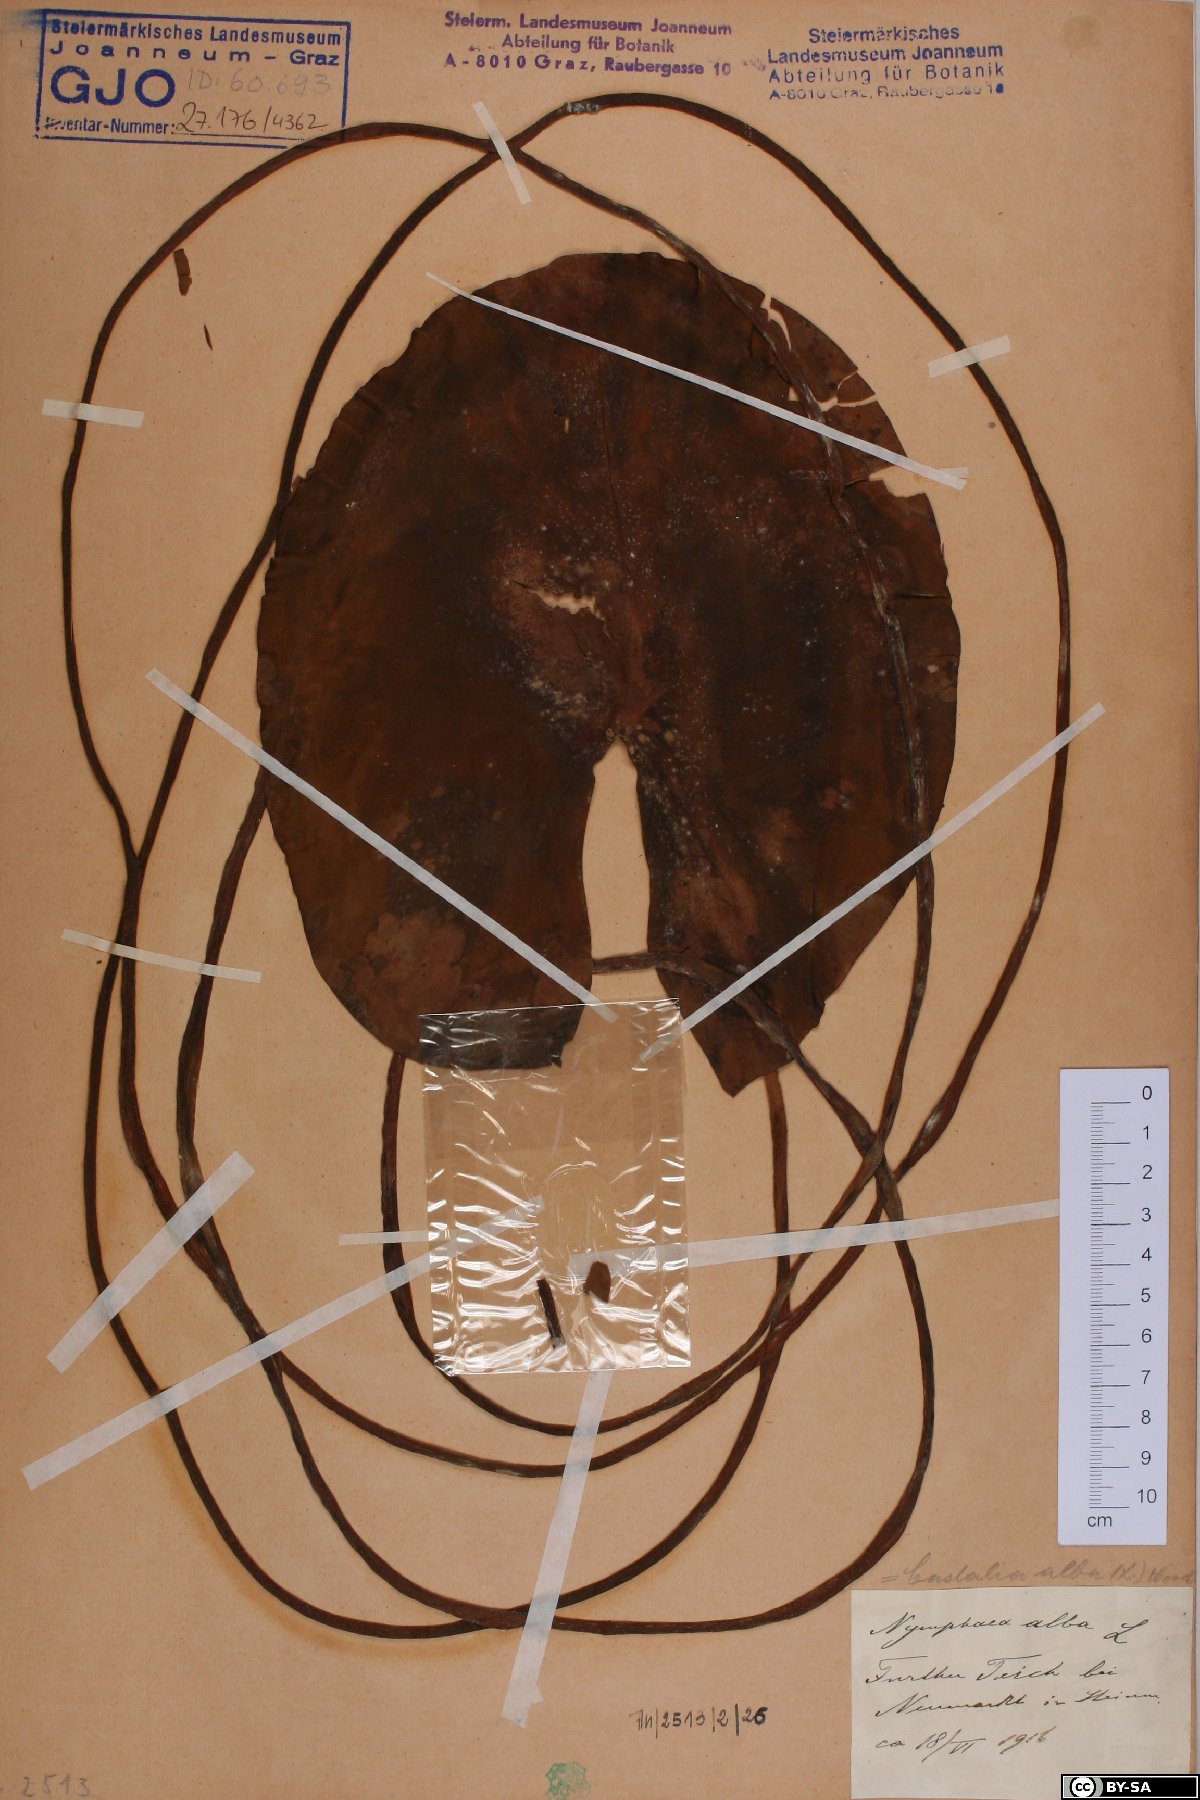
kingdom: Plantae
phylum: Tracheophyta
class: Magnoliopsida
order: Nymphaeales
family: Nymphaeaceae
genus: Nymphaea
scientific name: Nymphaea alba
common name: White water-lily
